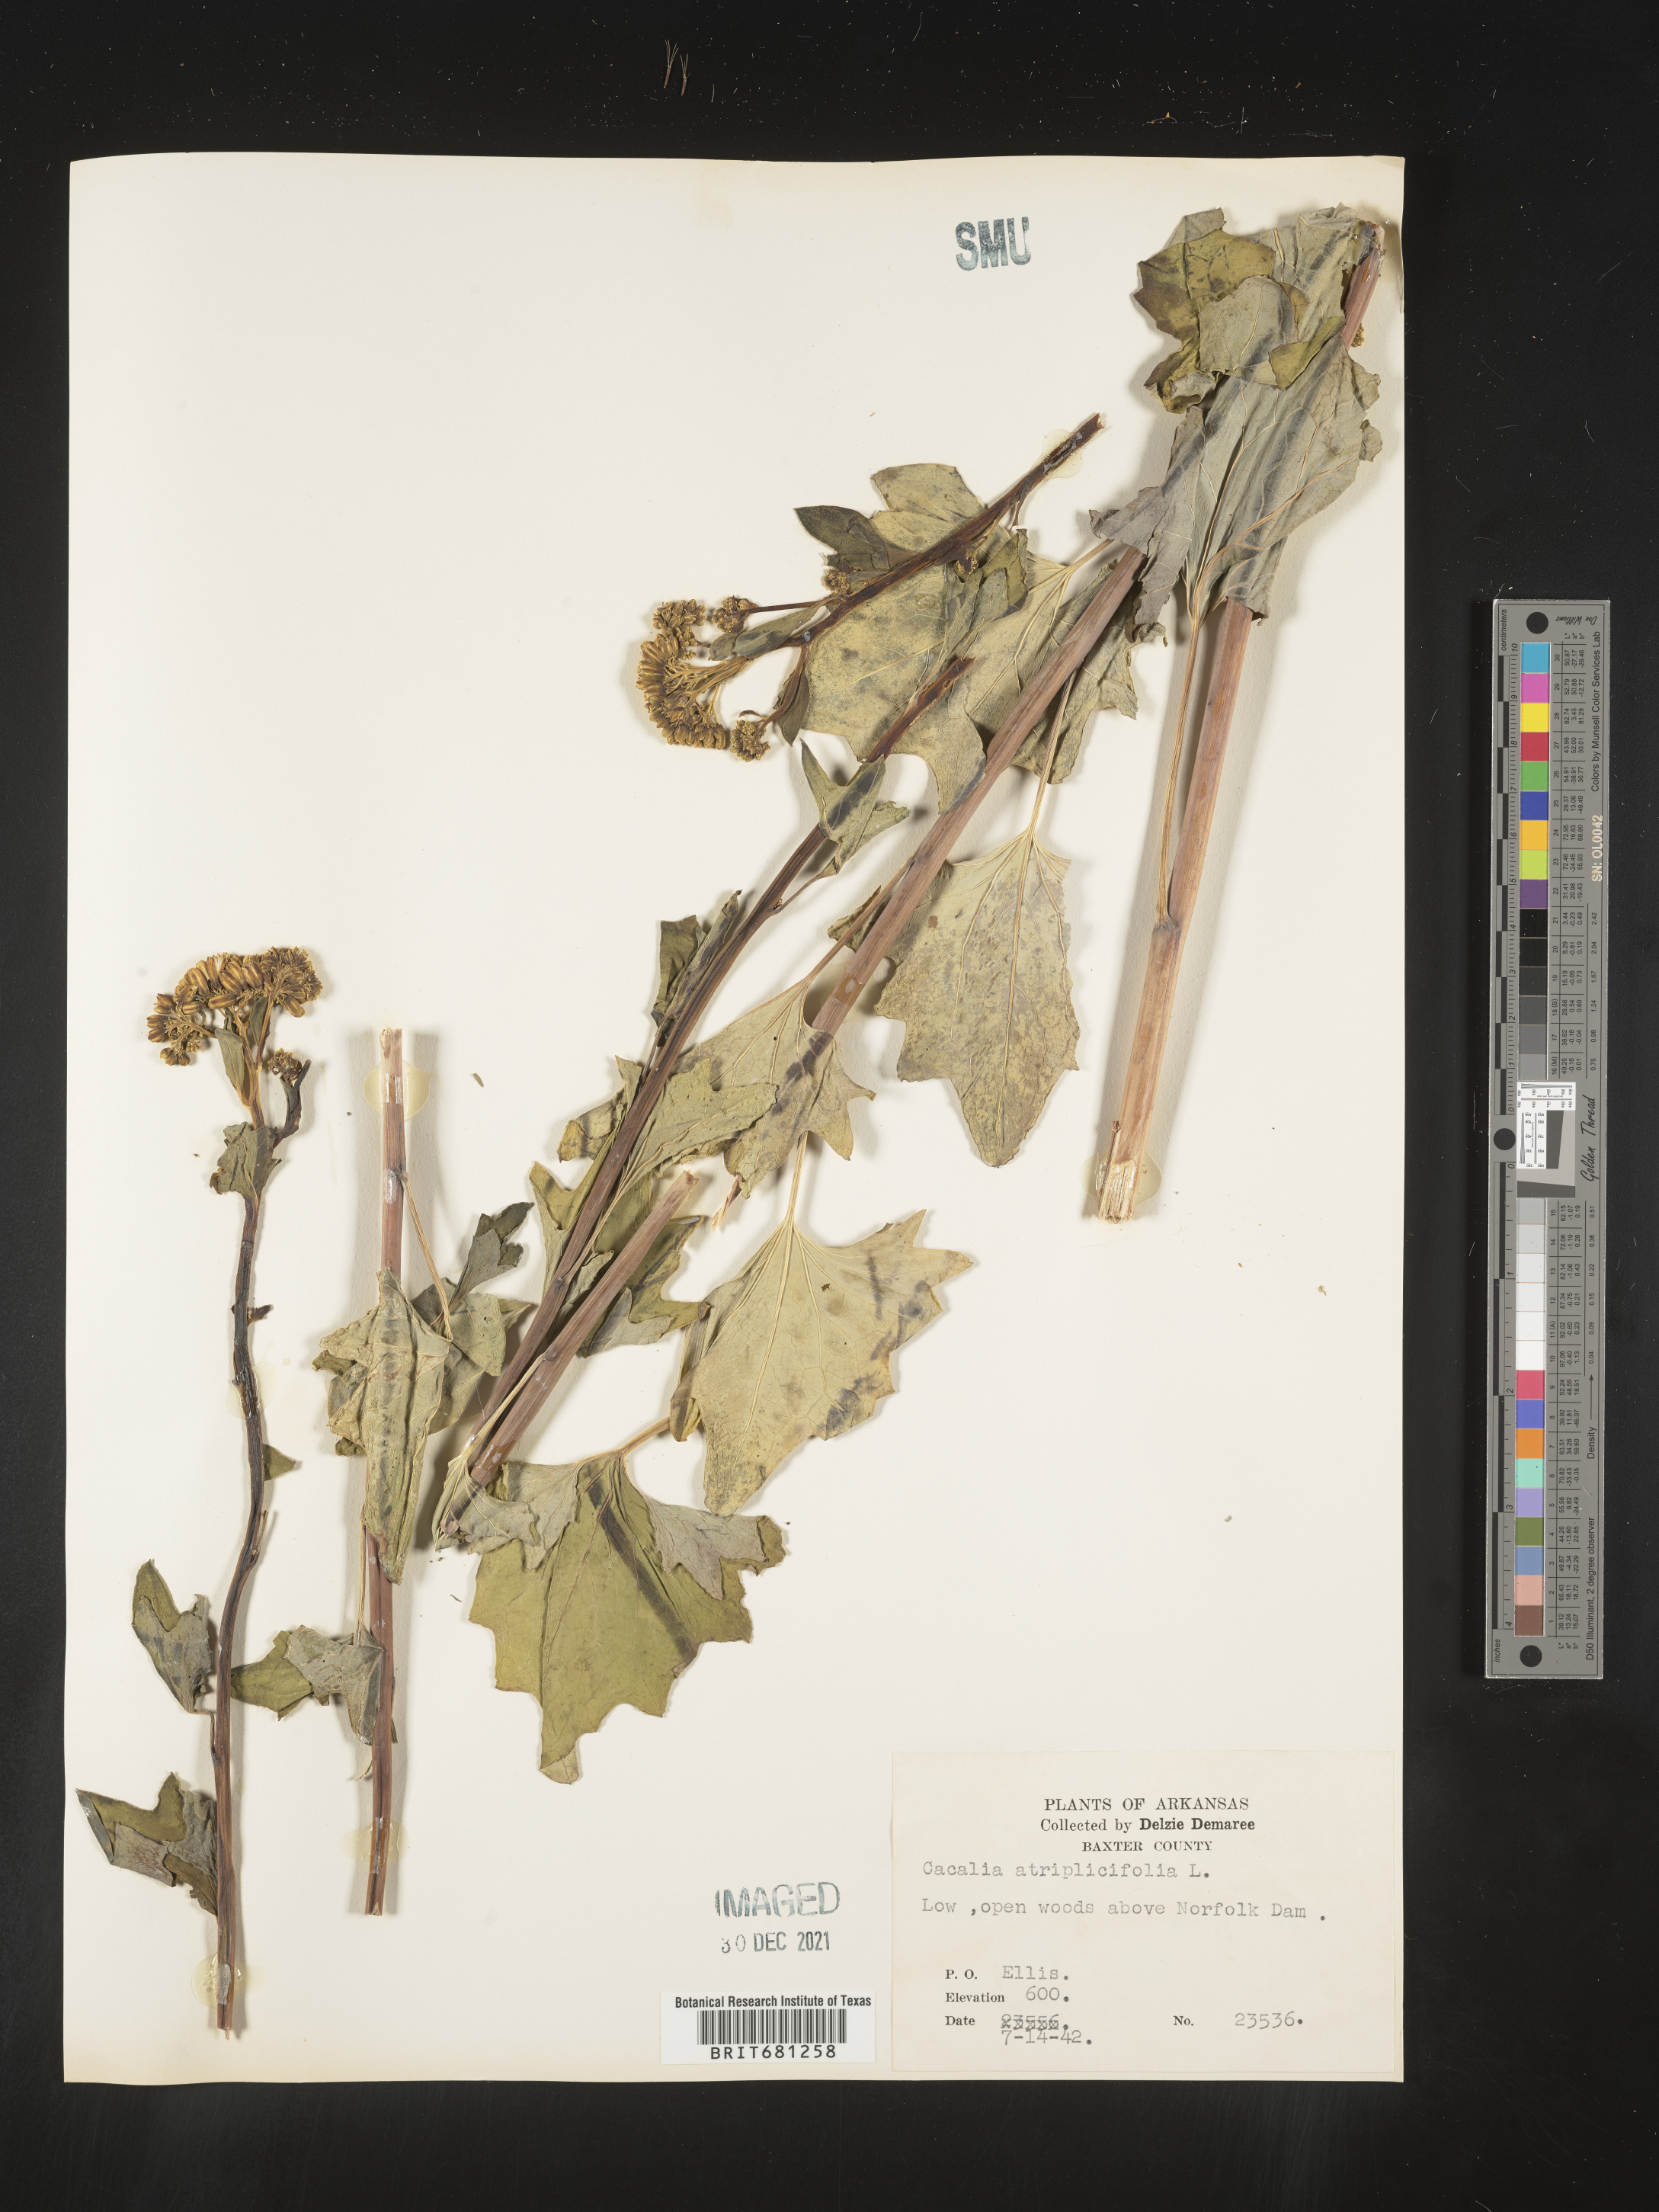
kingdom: Plantae
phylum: Tracheophyta
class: Magnoliopsida
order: Asterales
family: Asteraceae
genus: Arnoglossum
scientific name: Arnoglossum atriplicifolium
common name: Pale indian-plantain
